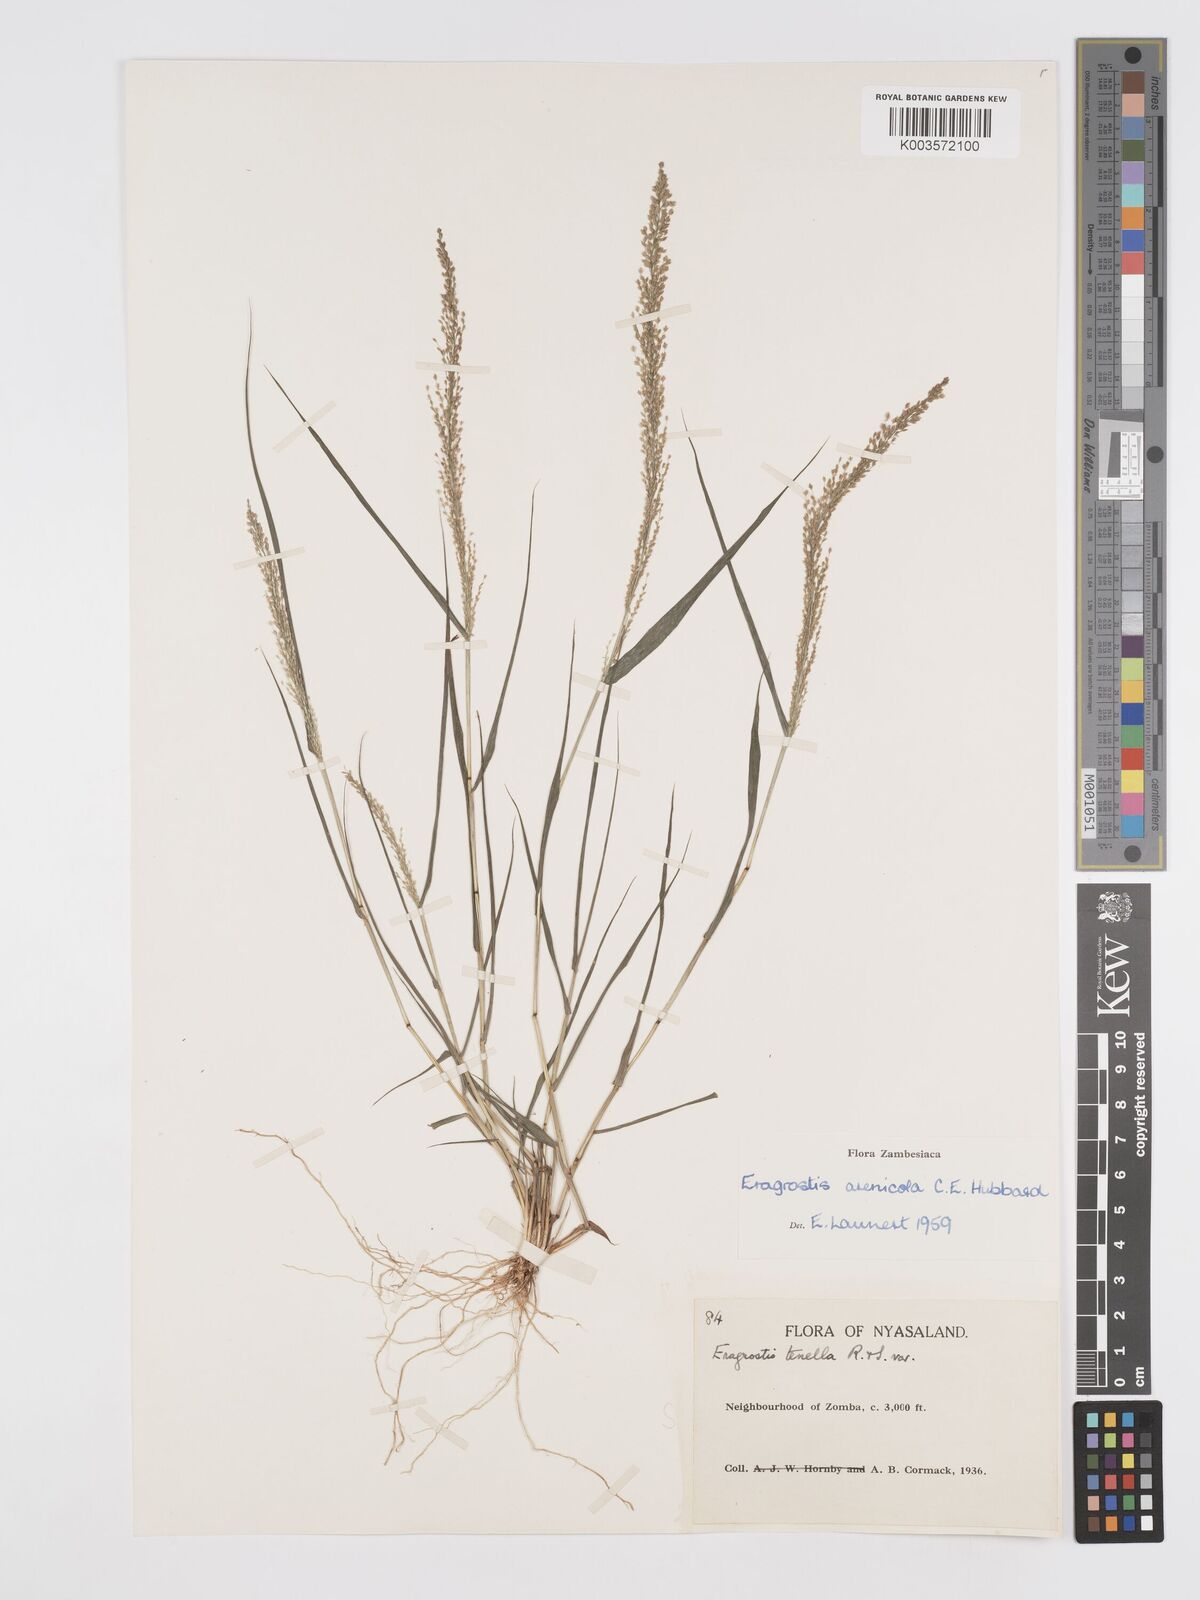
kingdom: Plantae
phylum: Tracheophyta
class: Liliopsida
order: Poales
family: Poaceae
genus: Eragrostis
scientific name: Eragrostis arenicola
